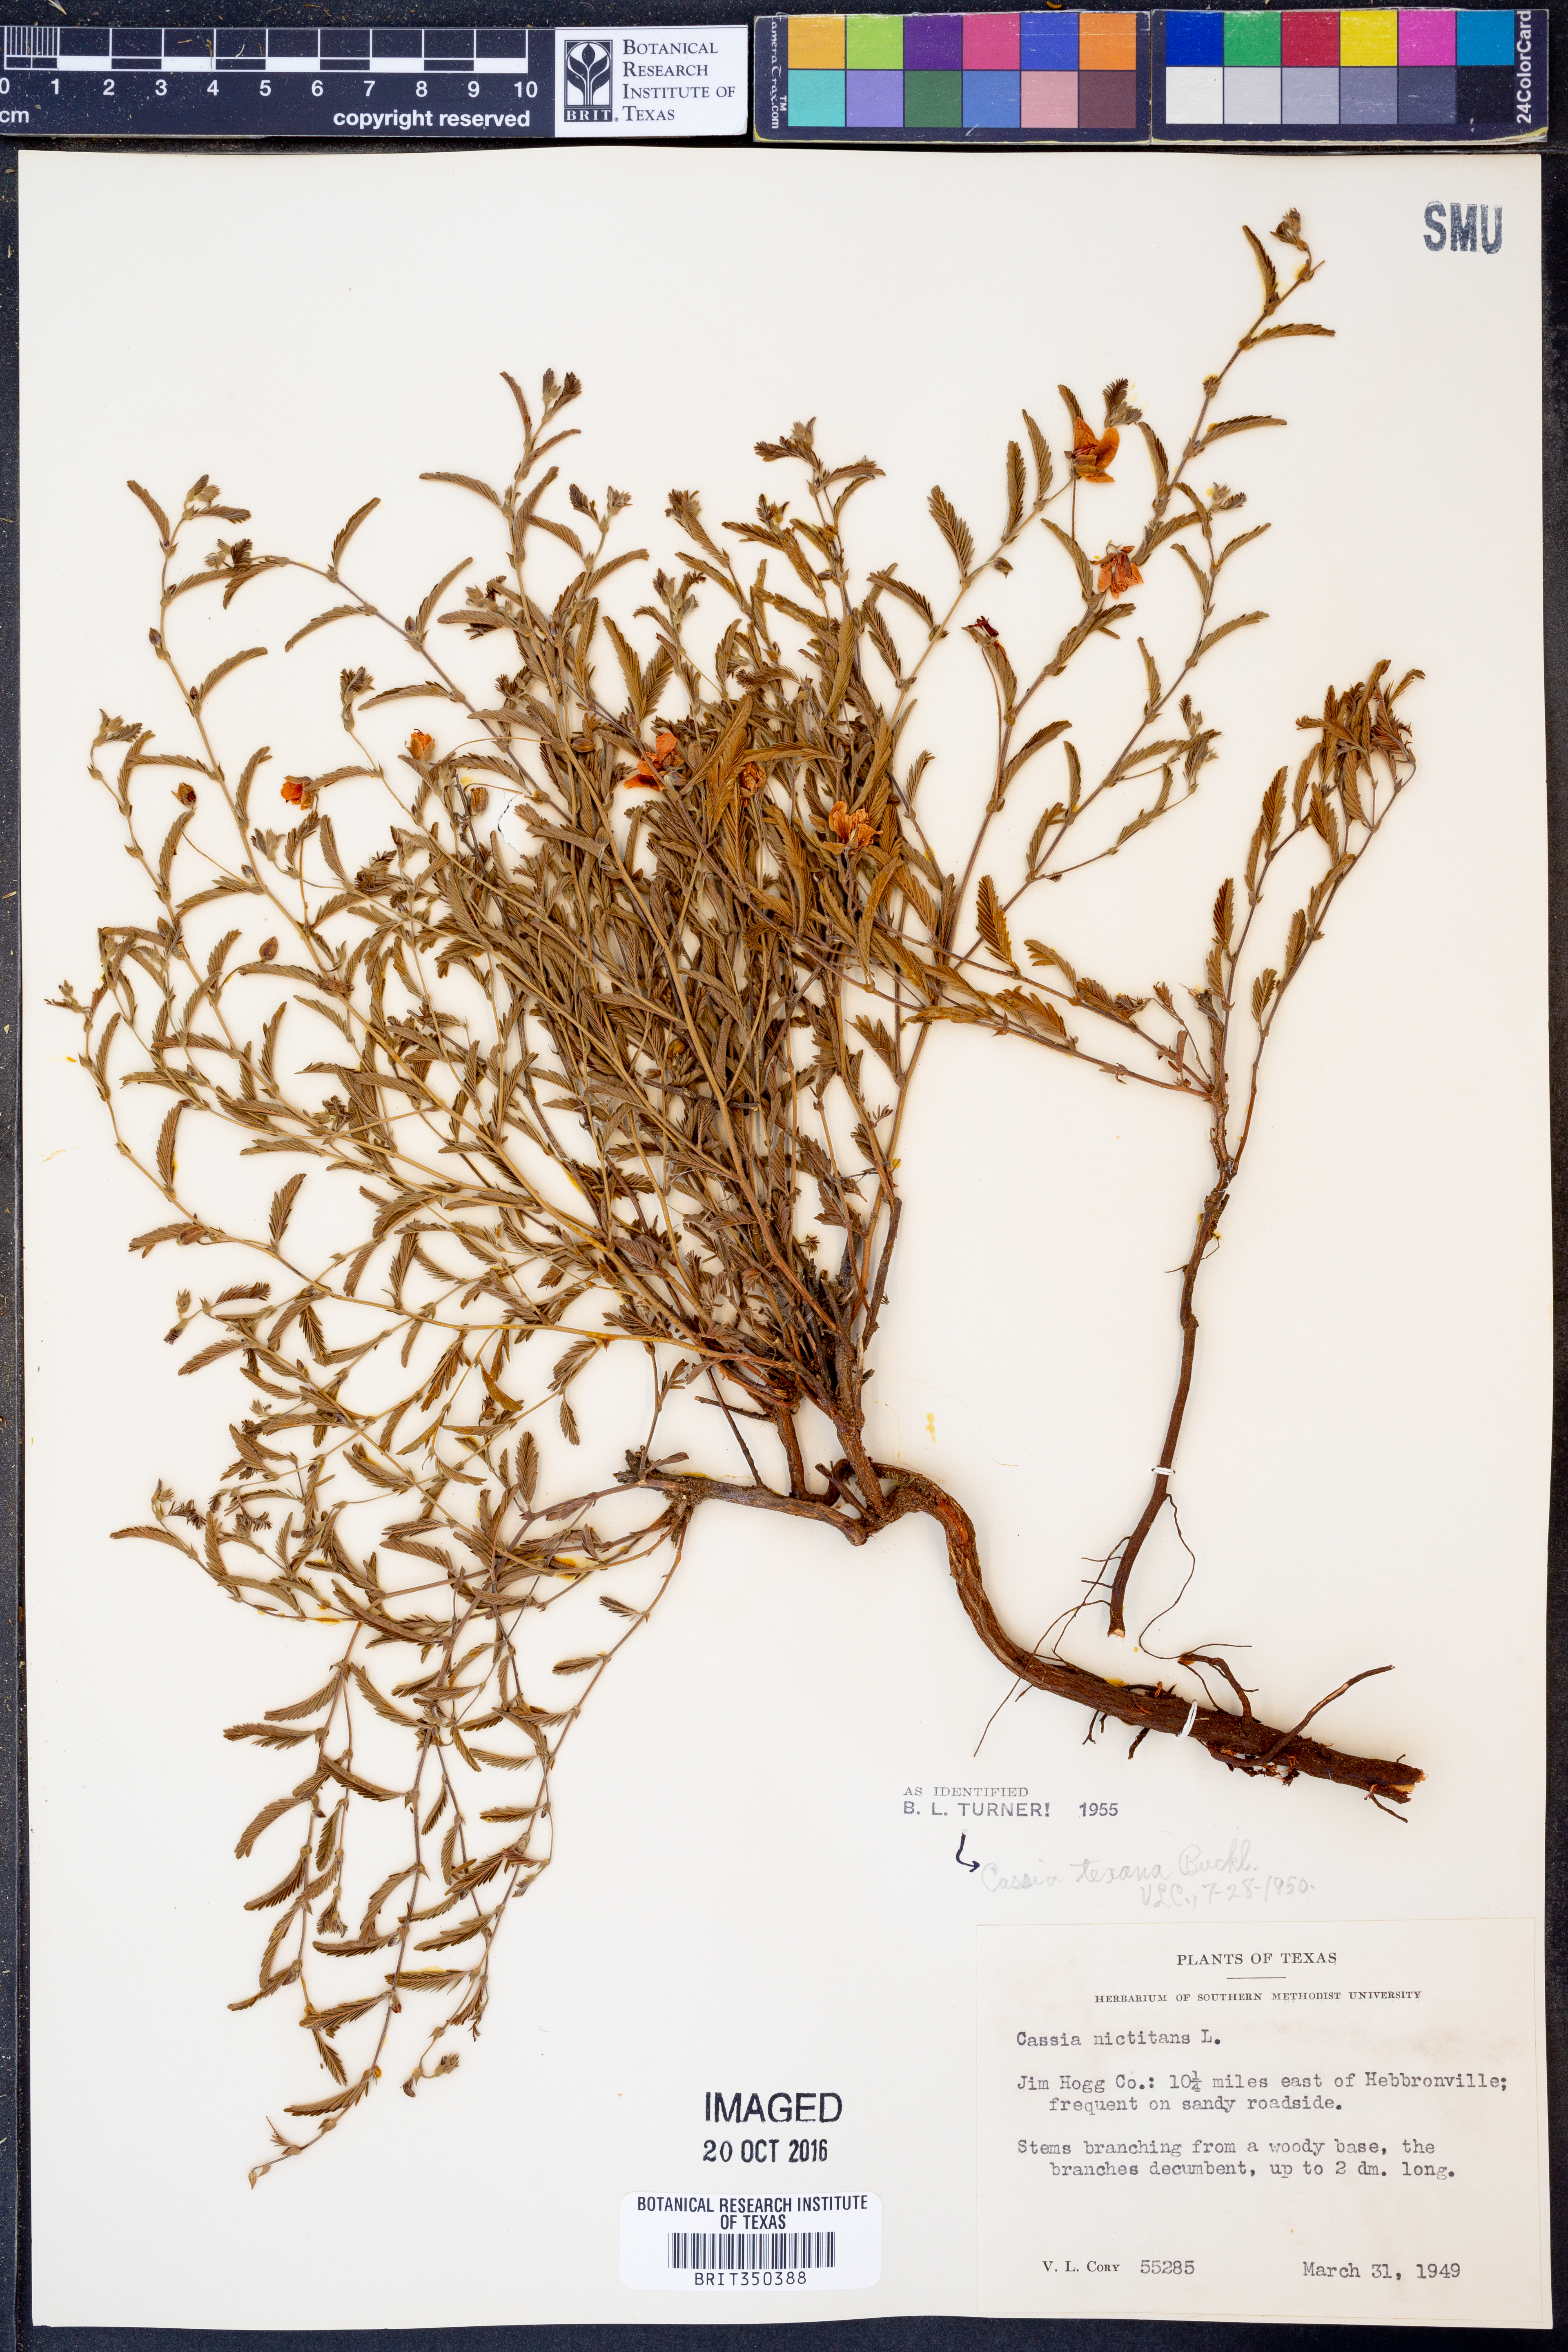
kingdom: Plantae
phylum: Tracheophyta
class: Magnoliopsida
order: Fabales
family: Fabaceae
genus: Chamaecrista
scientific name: Chamaecrista flexuosa
